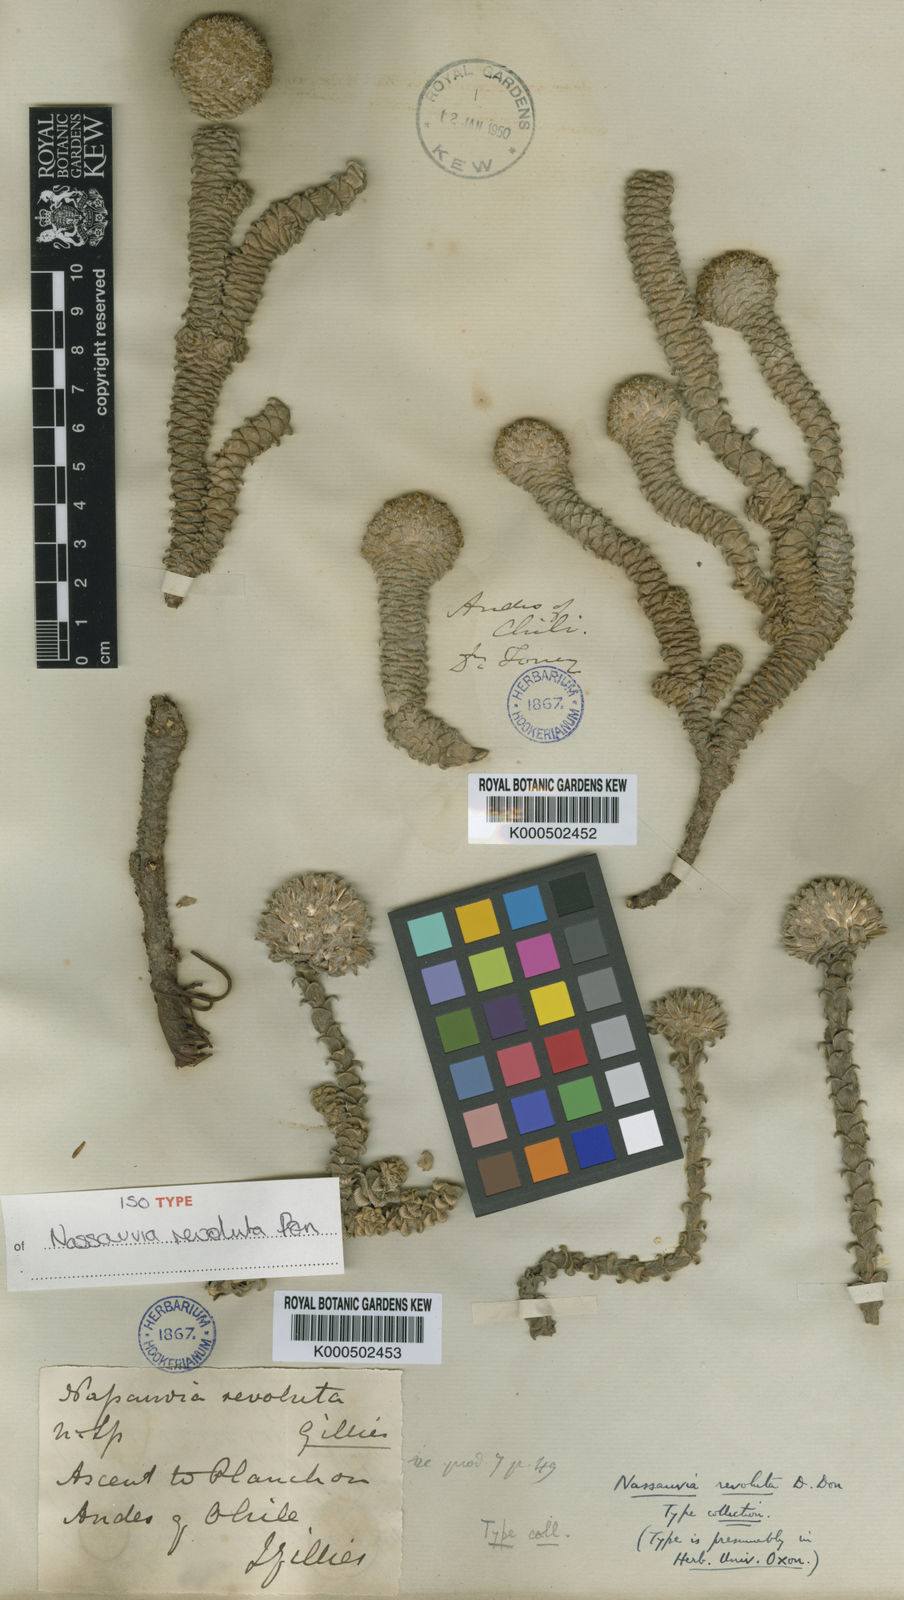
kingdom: Plantae
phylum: Tracheophyta
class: Magnoliopsida
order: Asterales
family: Asteraceae
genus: Nassauvia
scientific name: Nassauvia revoluta
